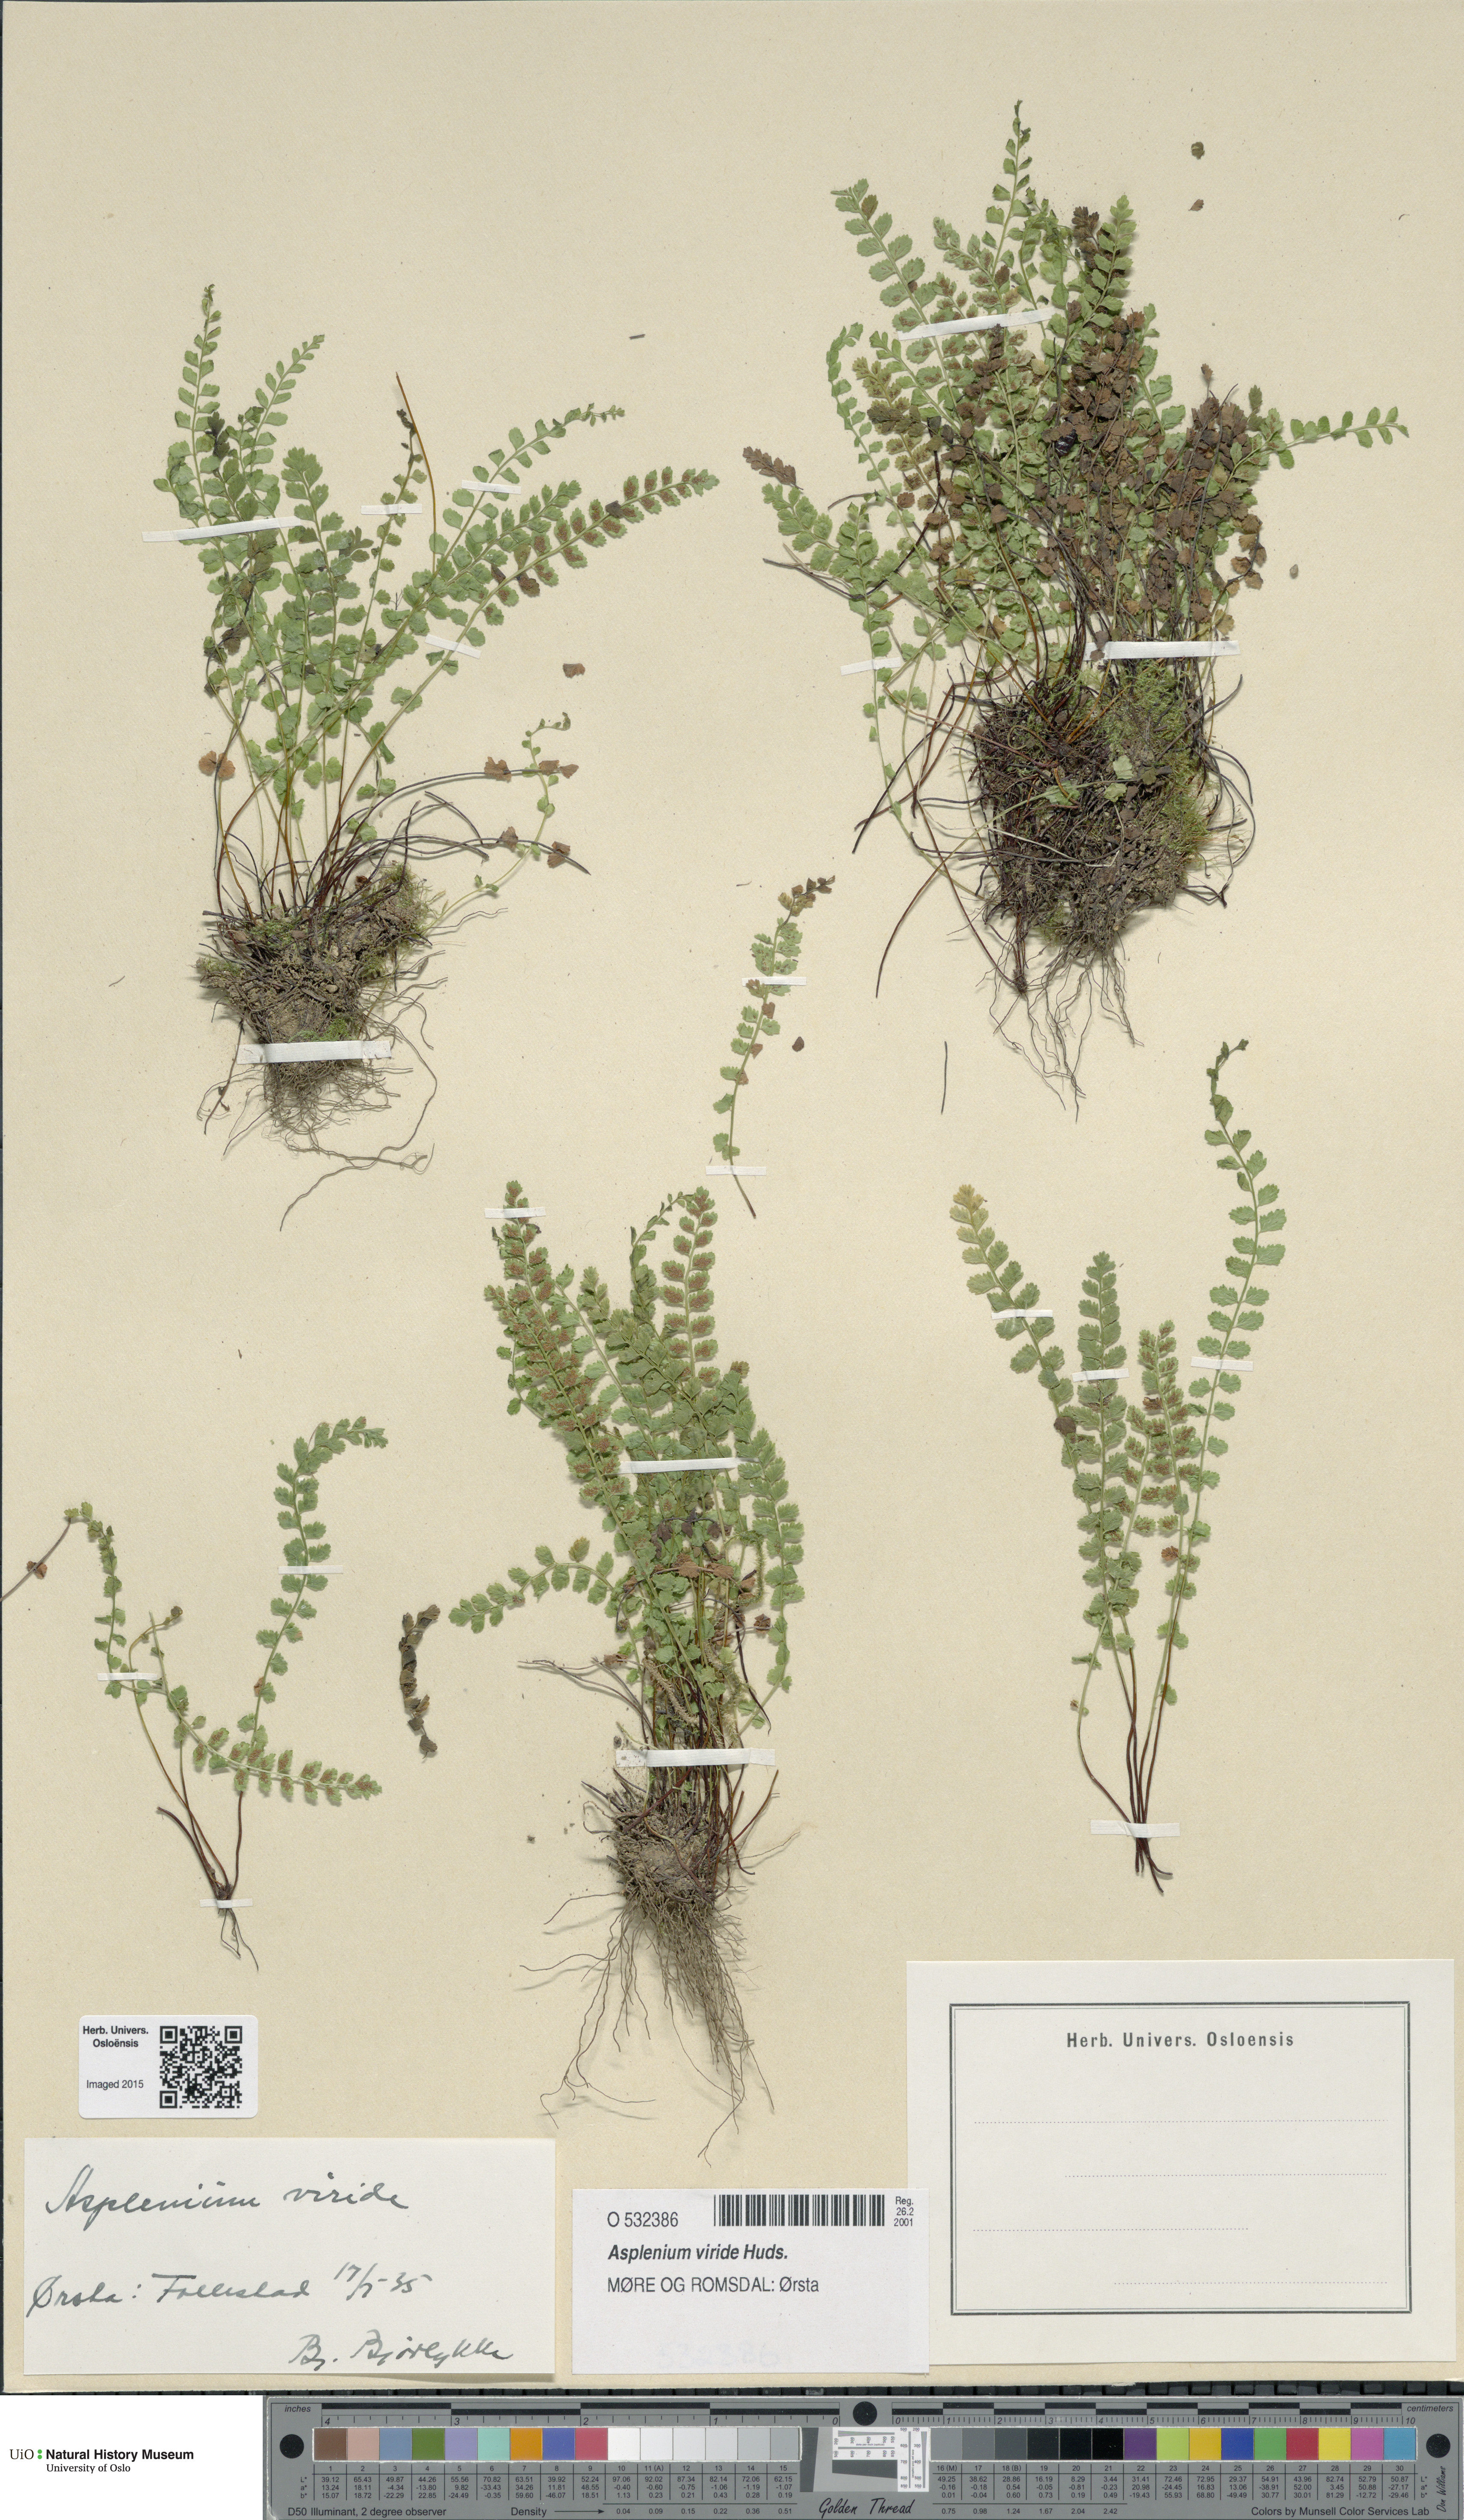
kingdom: Plantae
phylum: Tracheophyta
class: Polypodiopsida
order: Polypodiales
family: Aspleniaceae
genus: Asplenium
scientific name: Asplenium viride
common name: Green spleenwort
